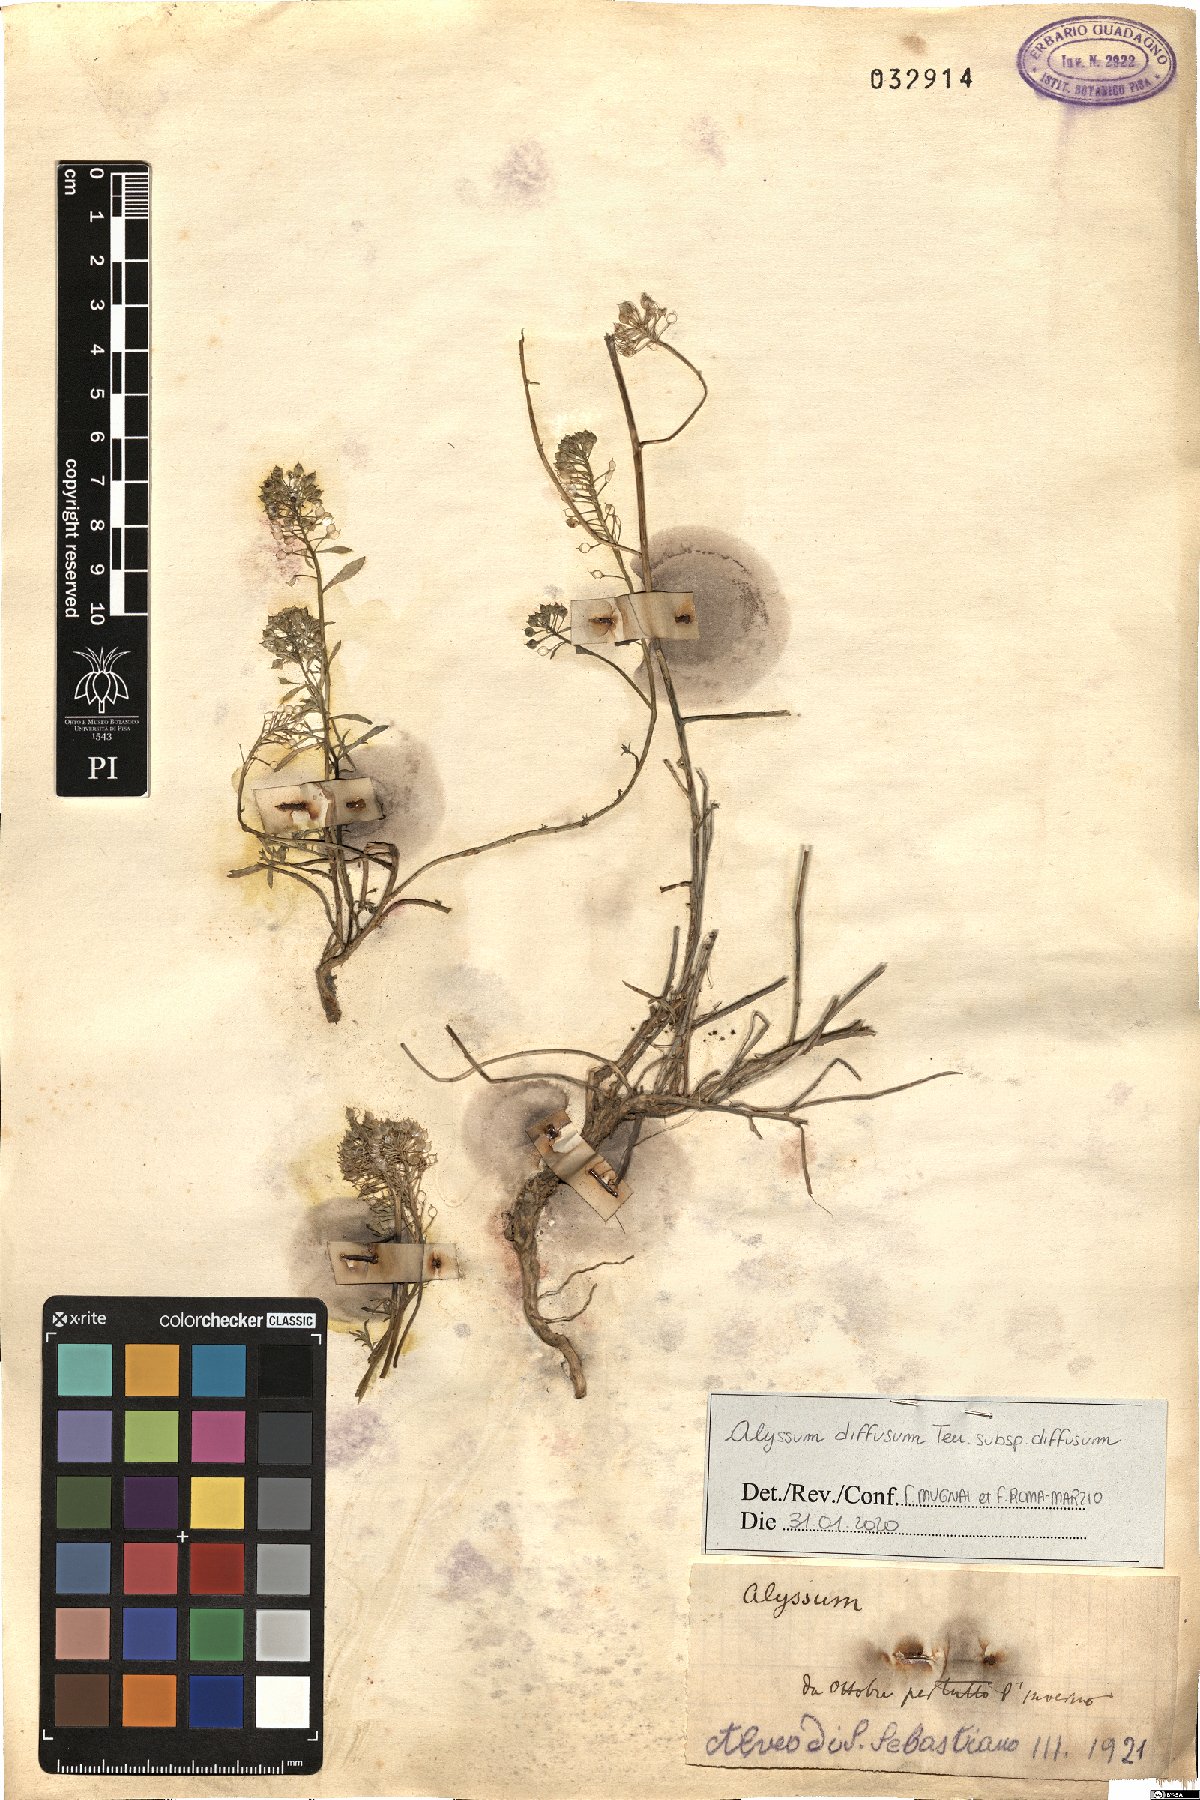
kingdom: Plantae
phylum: Tracheophyta
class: Magnoliopsida
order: Brassicales
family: Brassicaceae
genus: Alyssum
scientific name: Alyssum diffusum
